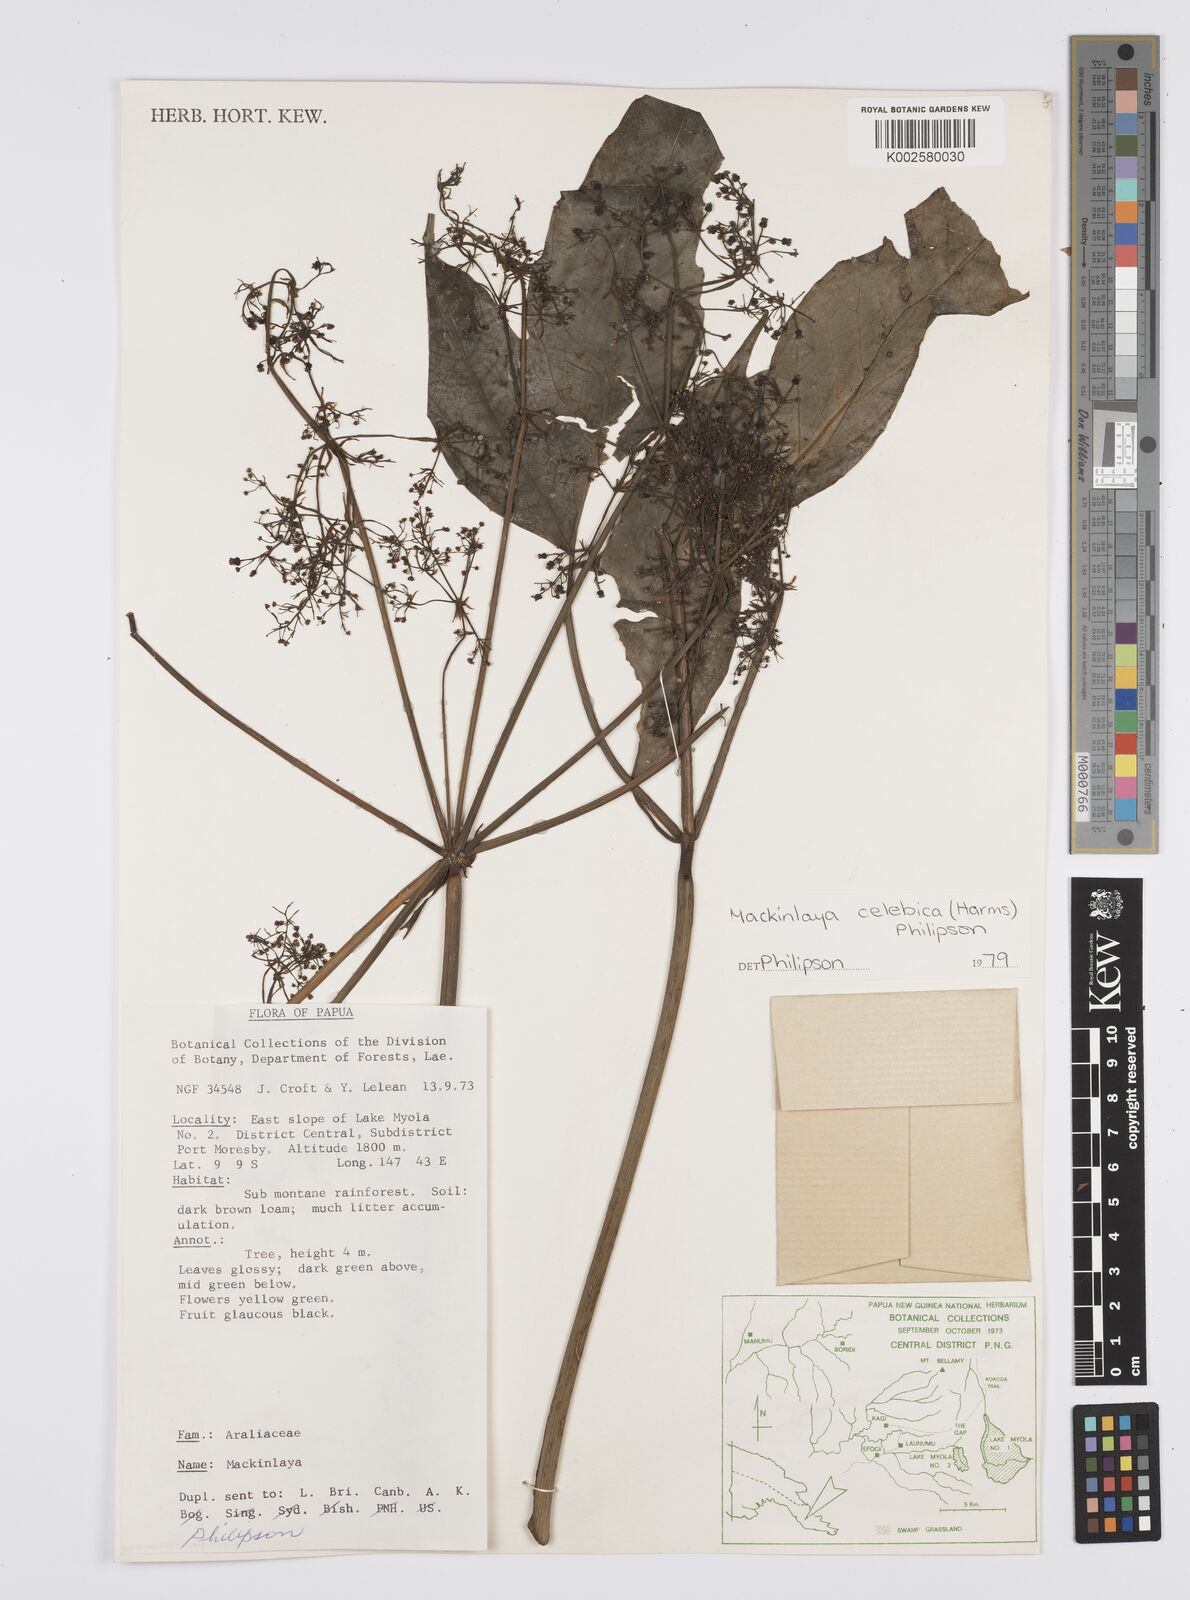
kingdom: Plantae
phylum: Tracheophyta
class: Magnoliopsida
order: Apiales
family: Apiaceae
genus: Mackinlaya
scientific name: Mackinlaya celebica
